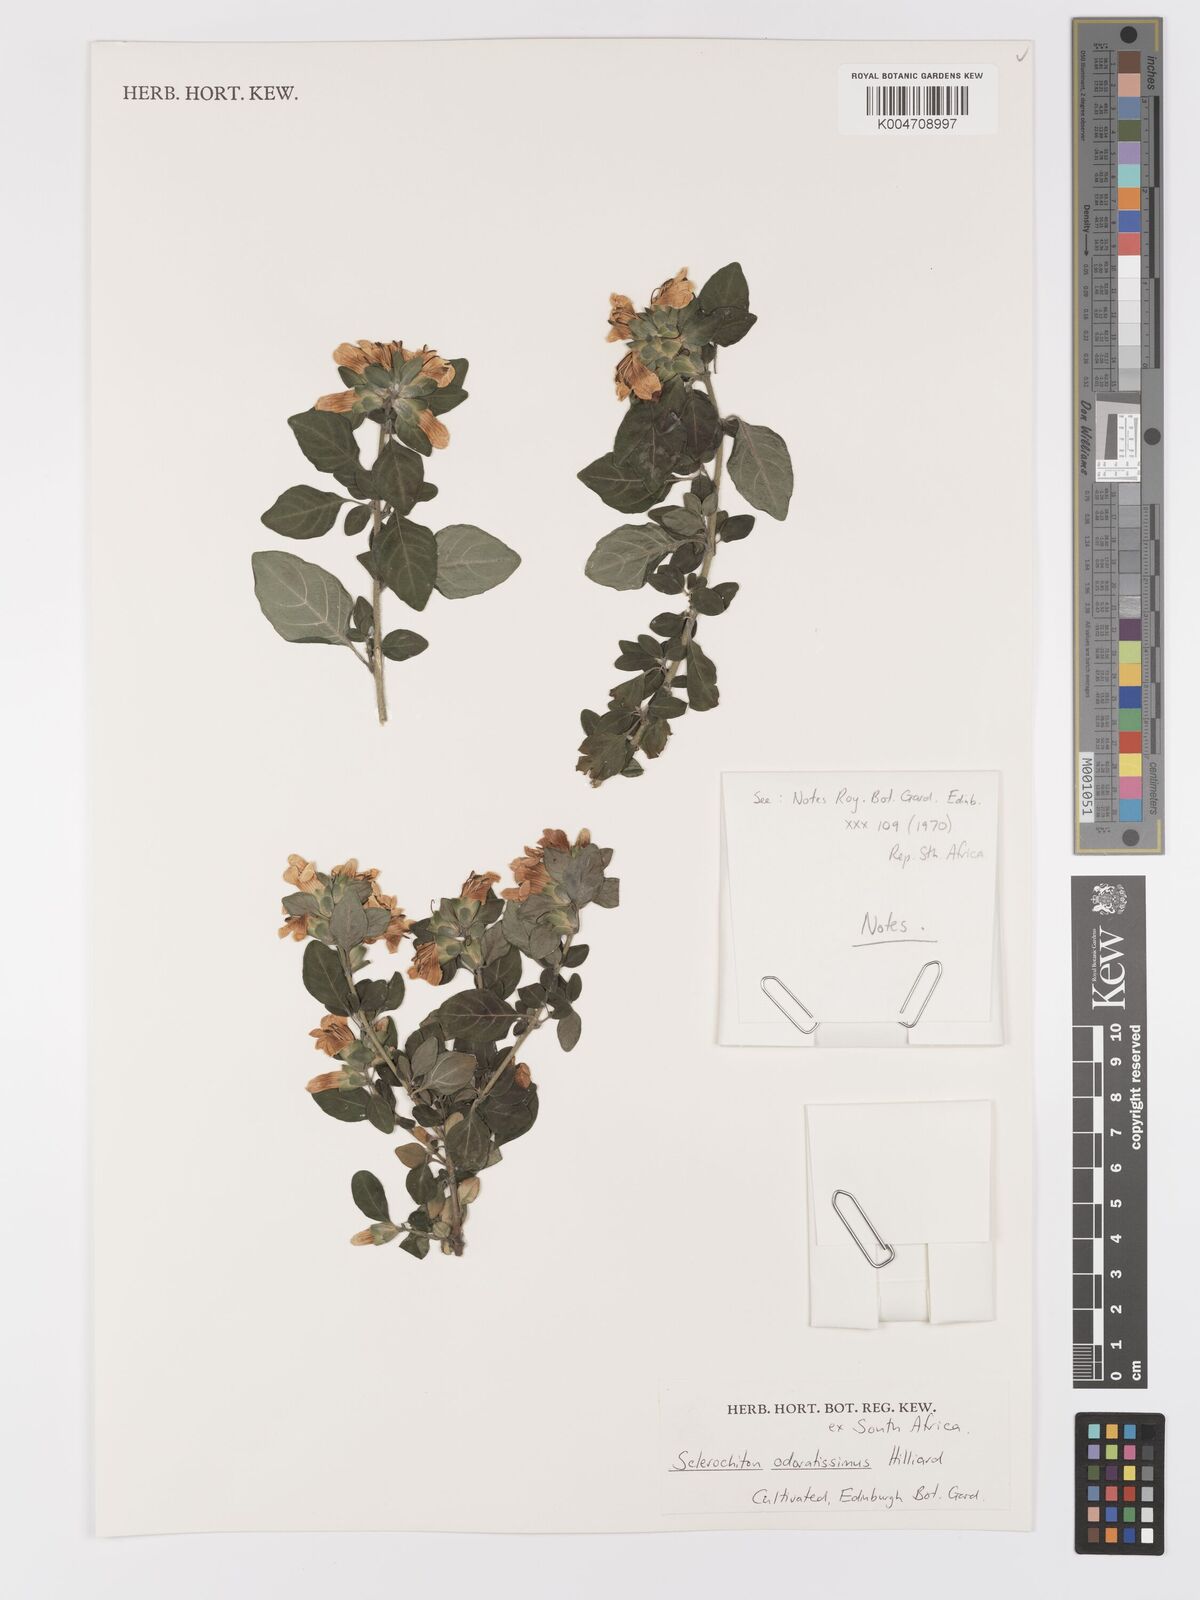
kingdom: Plantae
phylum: Tracheophyta
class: Magnoliopsida
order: Lamiales
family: Acanthaceae
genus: Sclerochiton
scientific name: Sclerochiton odoratissimus
